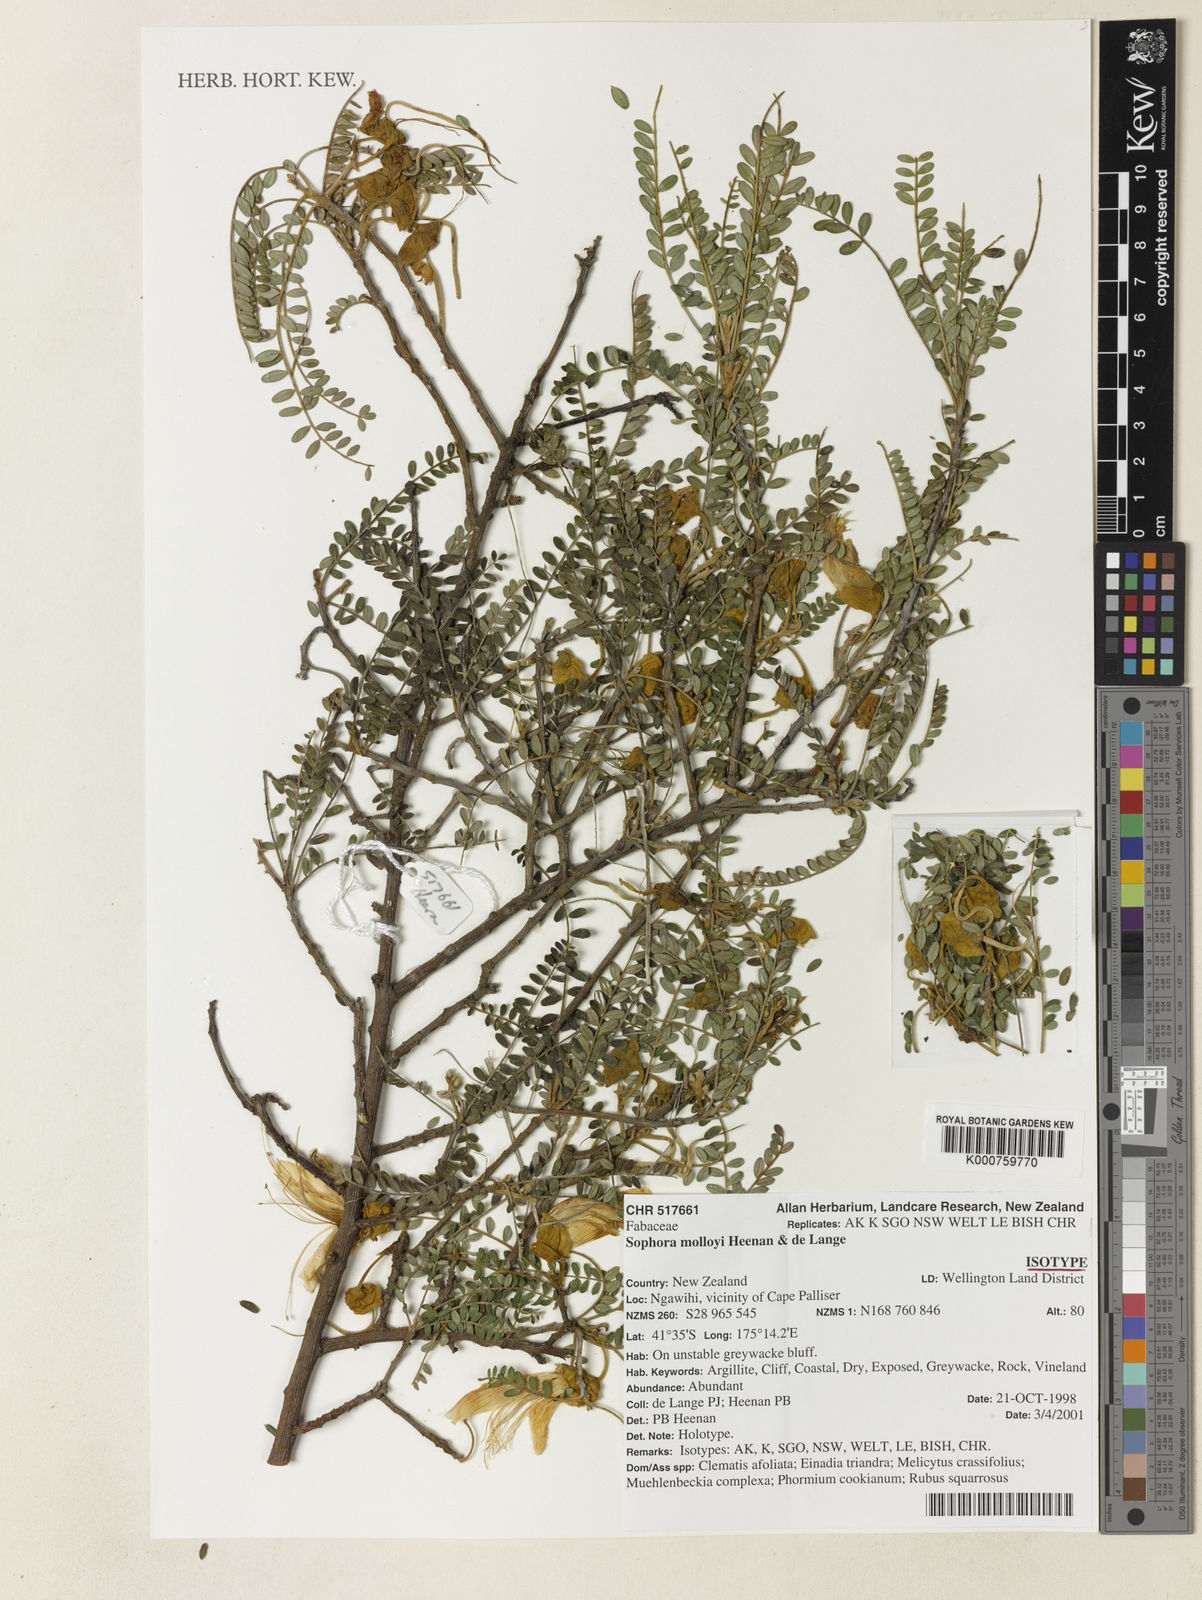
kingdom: Plantae
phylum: Tracheophyta
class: Magnoliopsida
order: Fabales
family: Fabaceae
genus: Sophora
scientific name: Sophora molloyi
